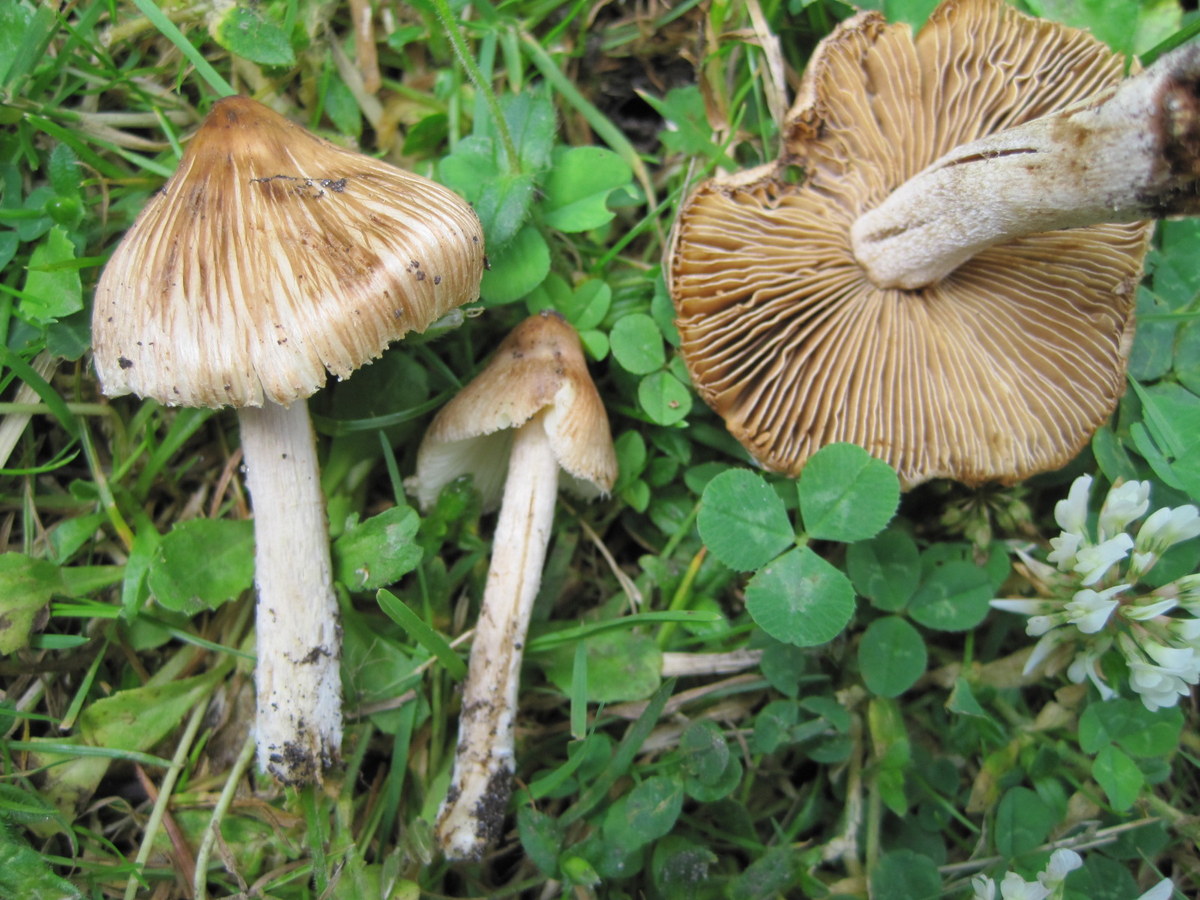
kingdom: Fungi
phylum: Basidiomycota
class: Agaricomycetes
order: Agaricales
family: Inocybaceae
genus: Pseudosperma
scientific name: Pseudosperma rimosum
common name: gulbladet trævlhat
